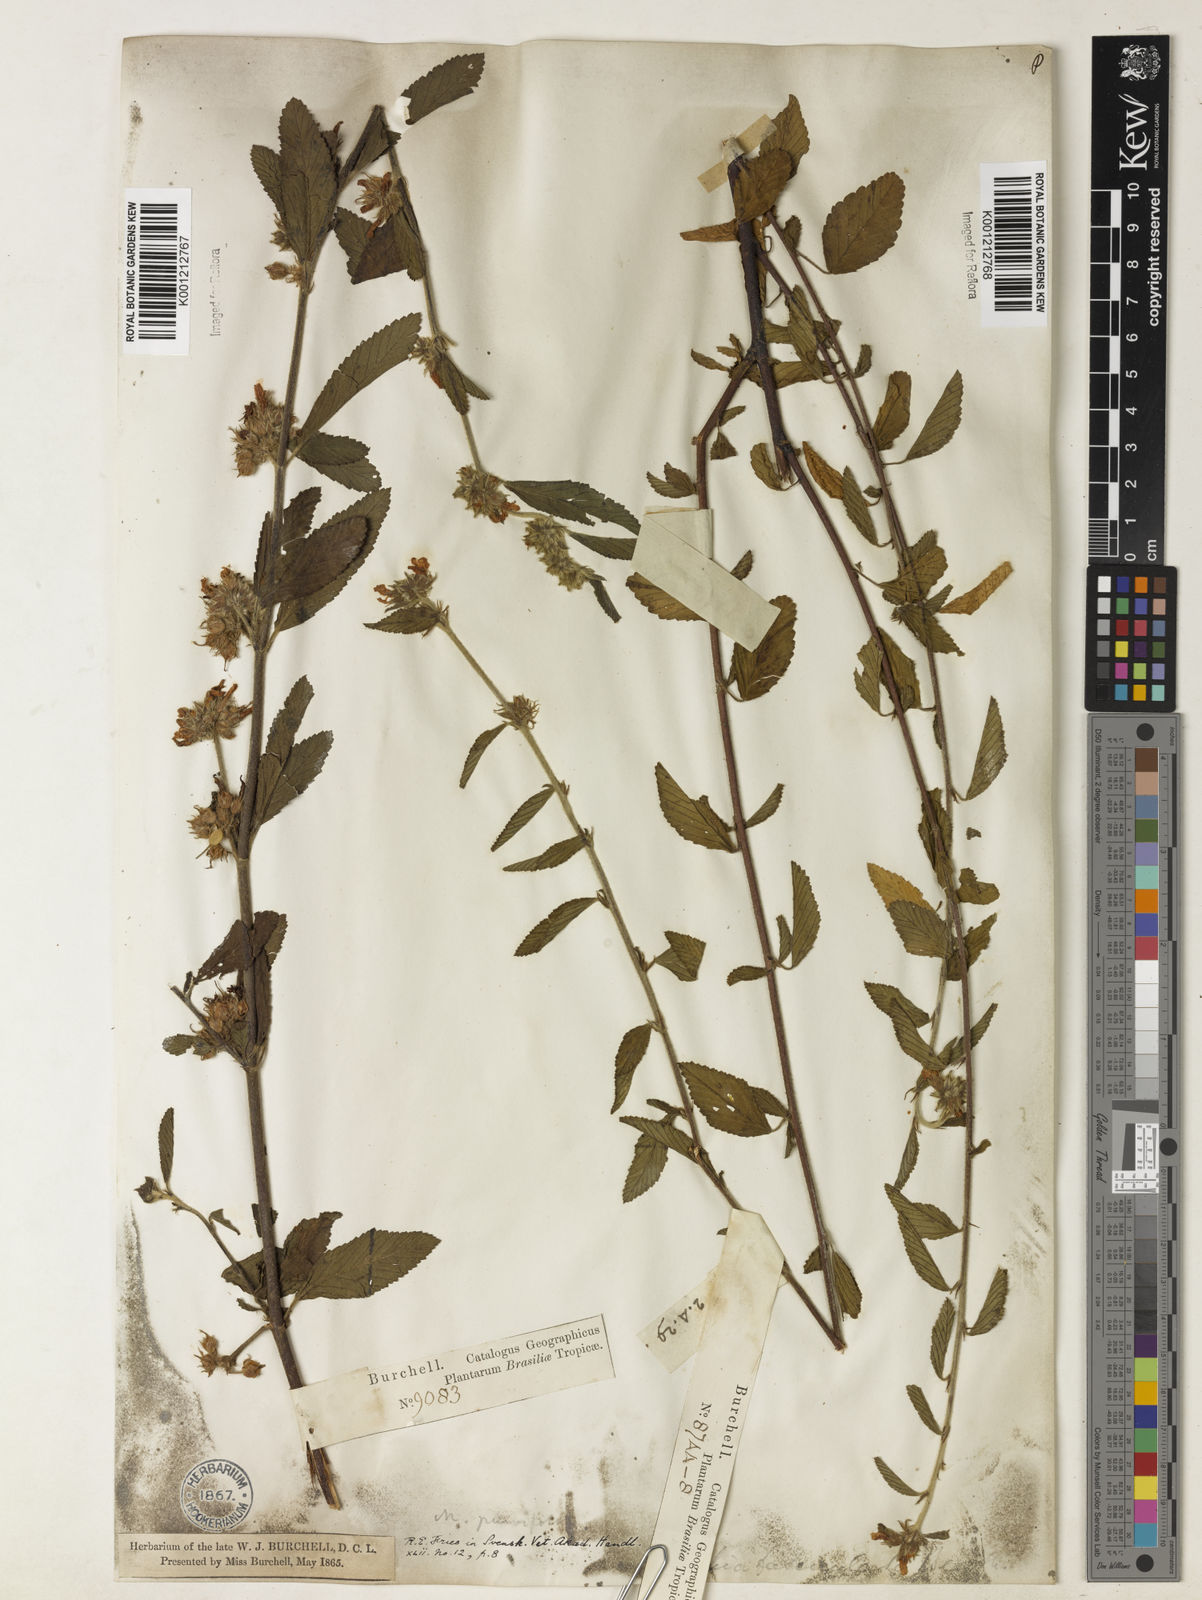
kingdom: Plantae
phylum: Tracheophyta
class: Magnoliopsida
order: Malvales
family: Malvaceae
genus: Melochia
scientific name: Melochia
